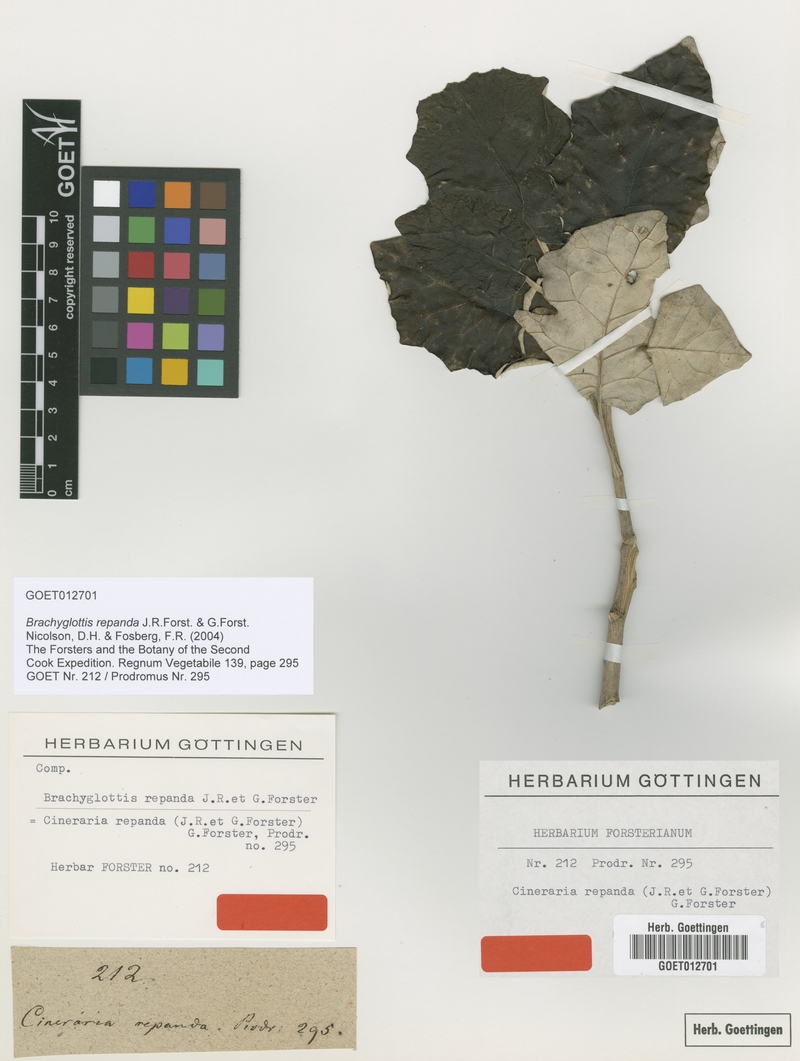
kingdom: Plantae
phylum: Tracheophyta
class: Magnoliopsida
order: Asterales
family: Asteraceae
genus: Brachyglottis
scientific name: Brachyglottis repanda
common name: Hedge ragwort
